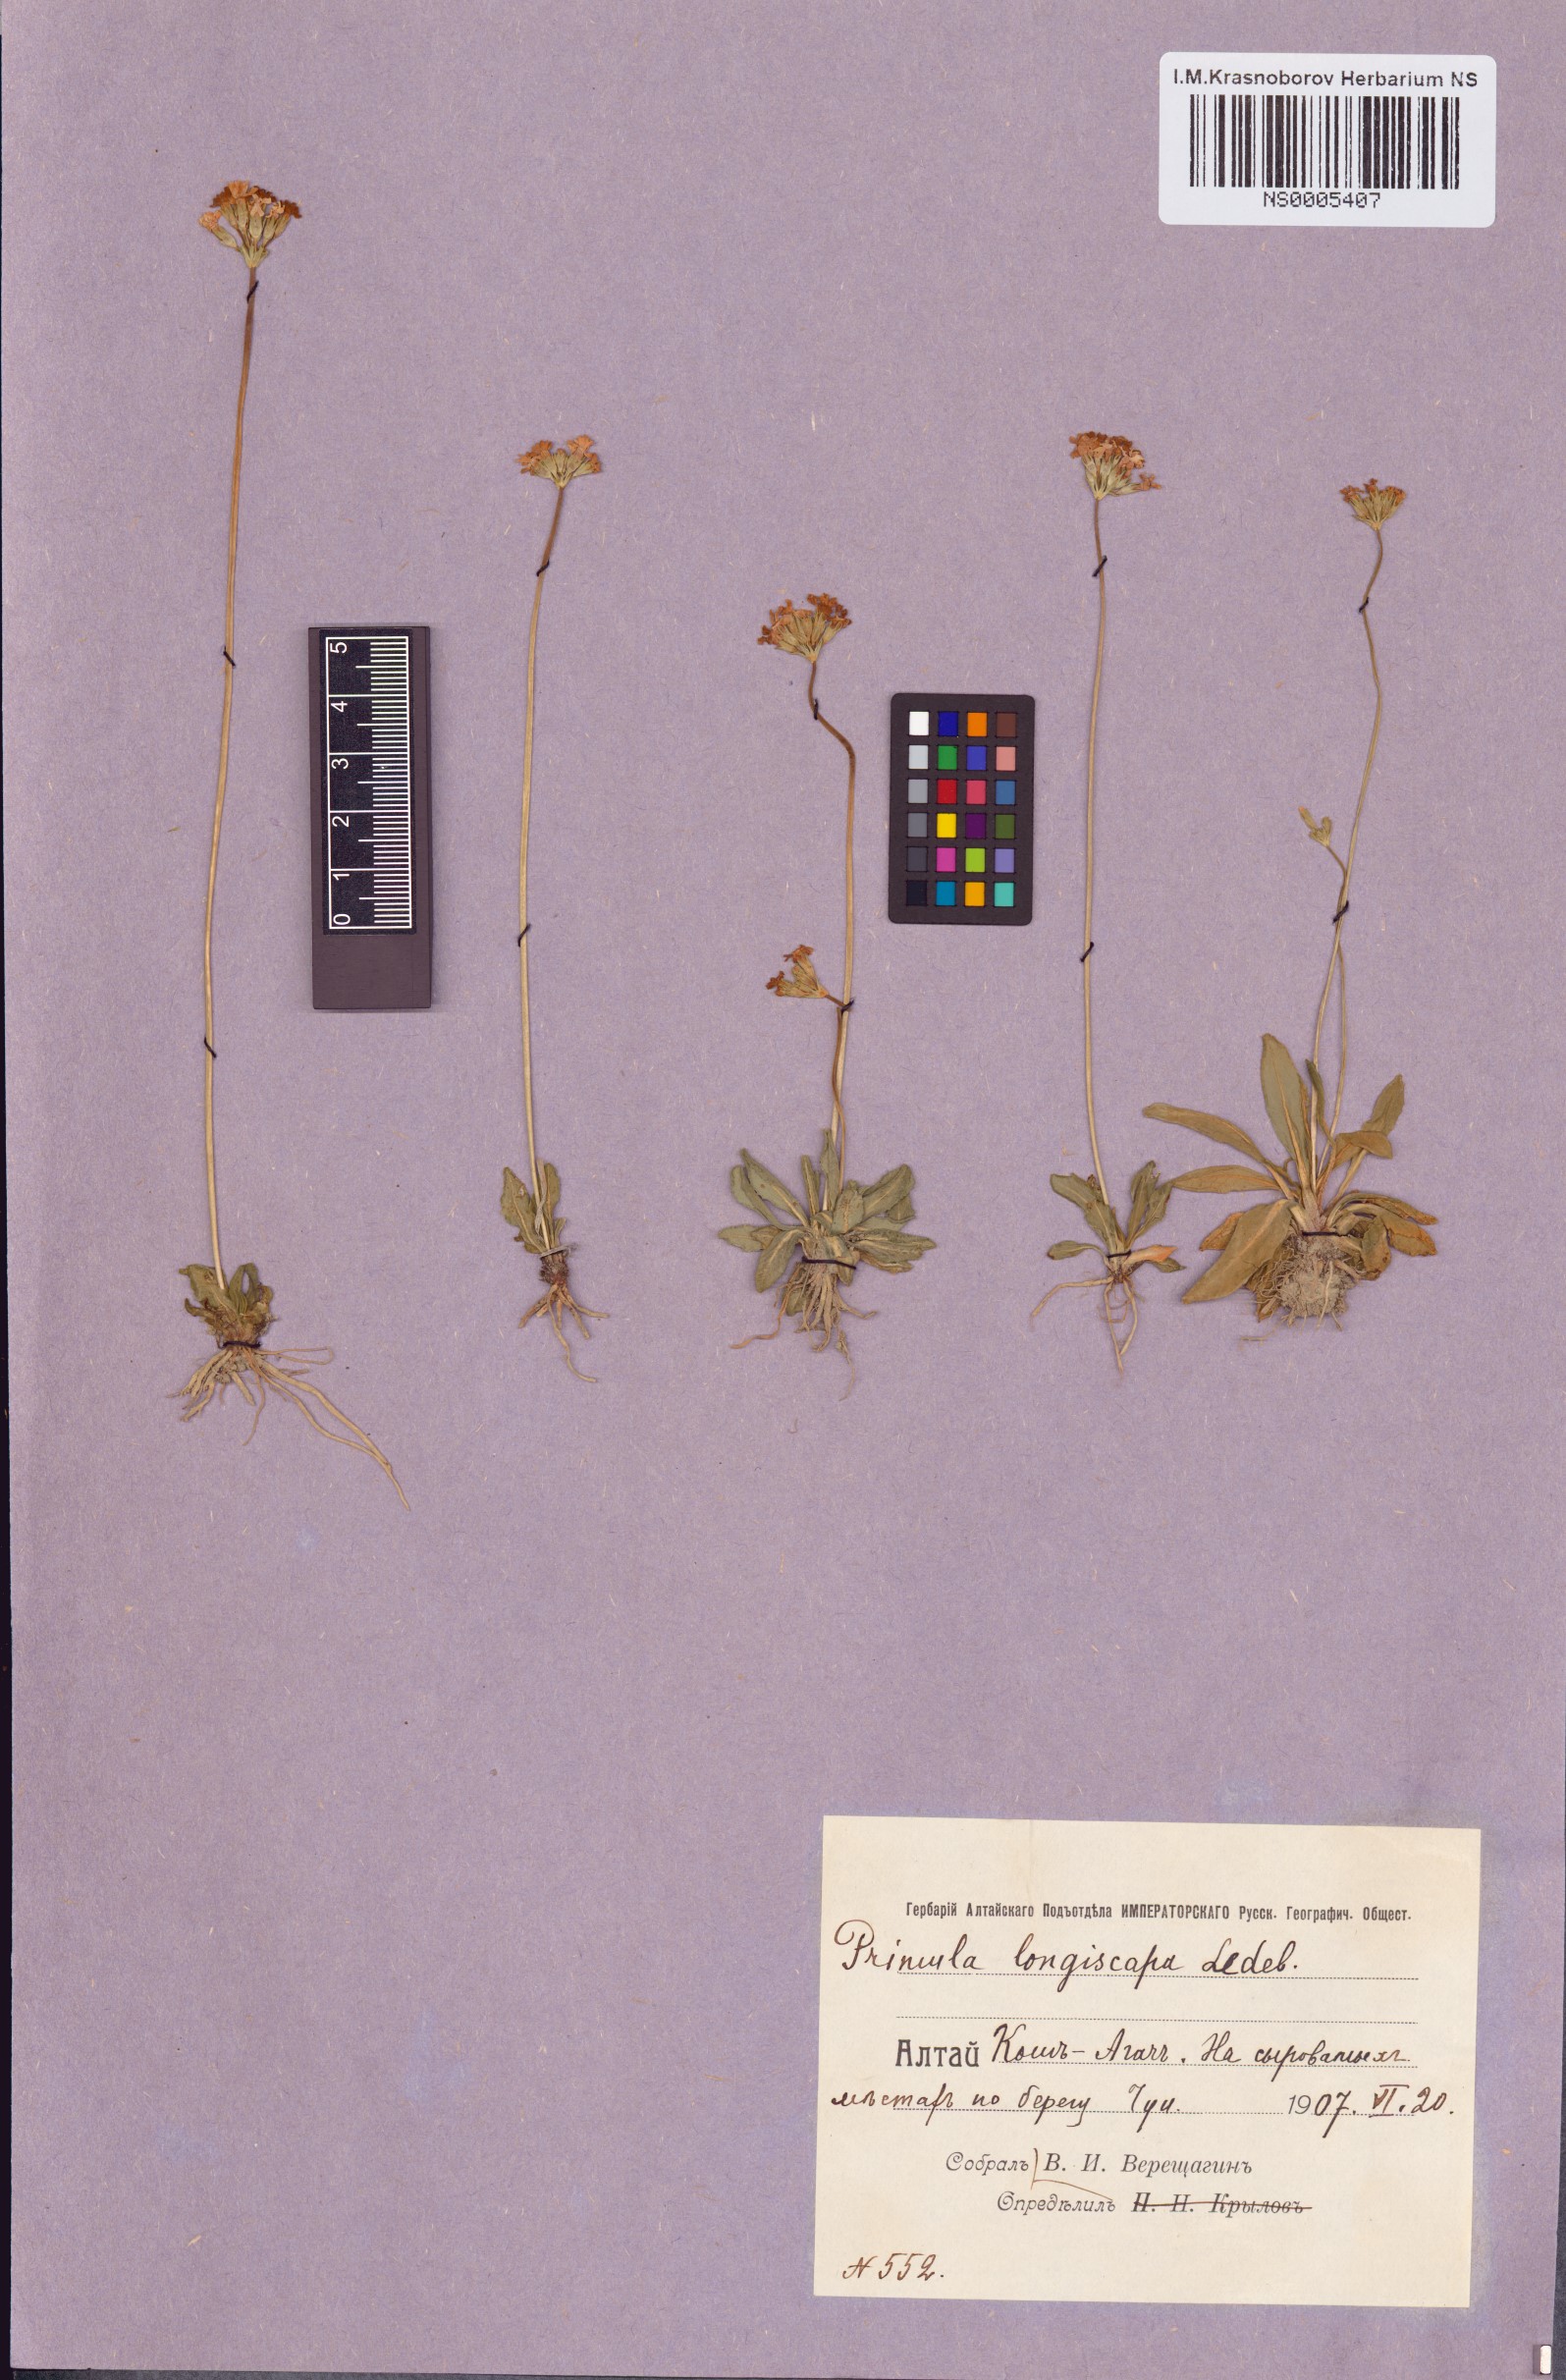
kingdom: Plantae
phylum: Tracheophyta
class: Magnoliopsida
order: Ericales
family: Primulaceae
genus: Primula
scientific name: Primula longiscapa
